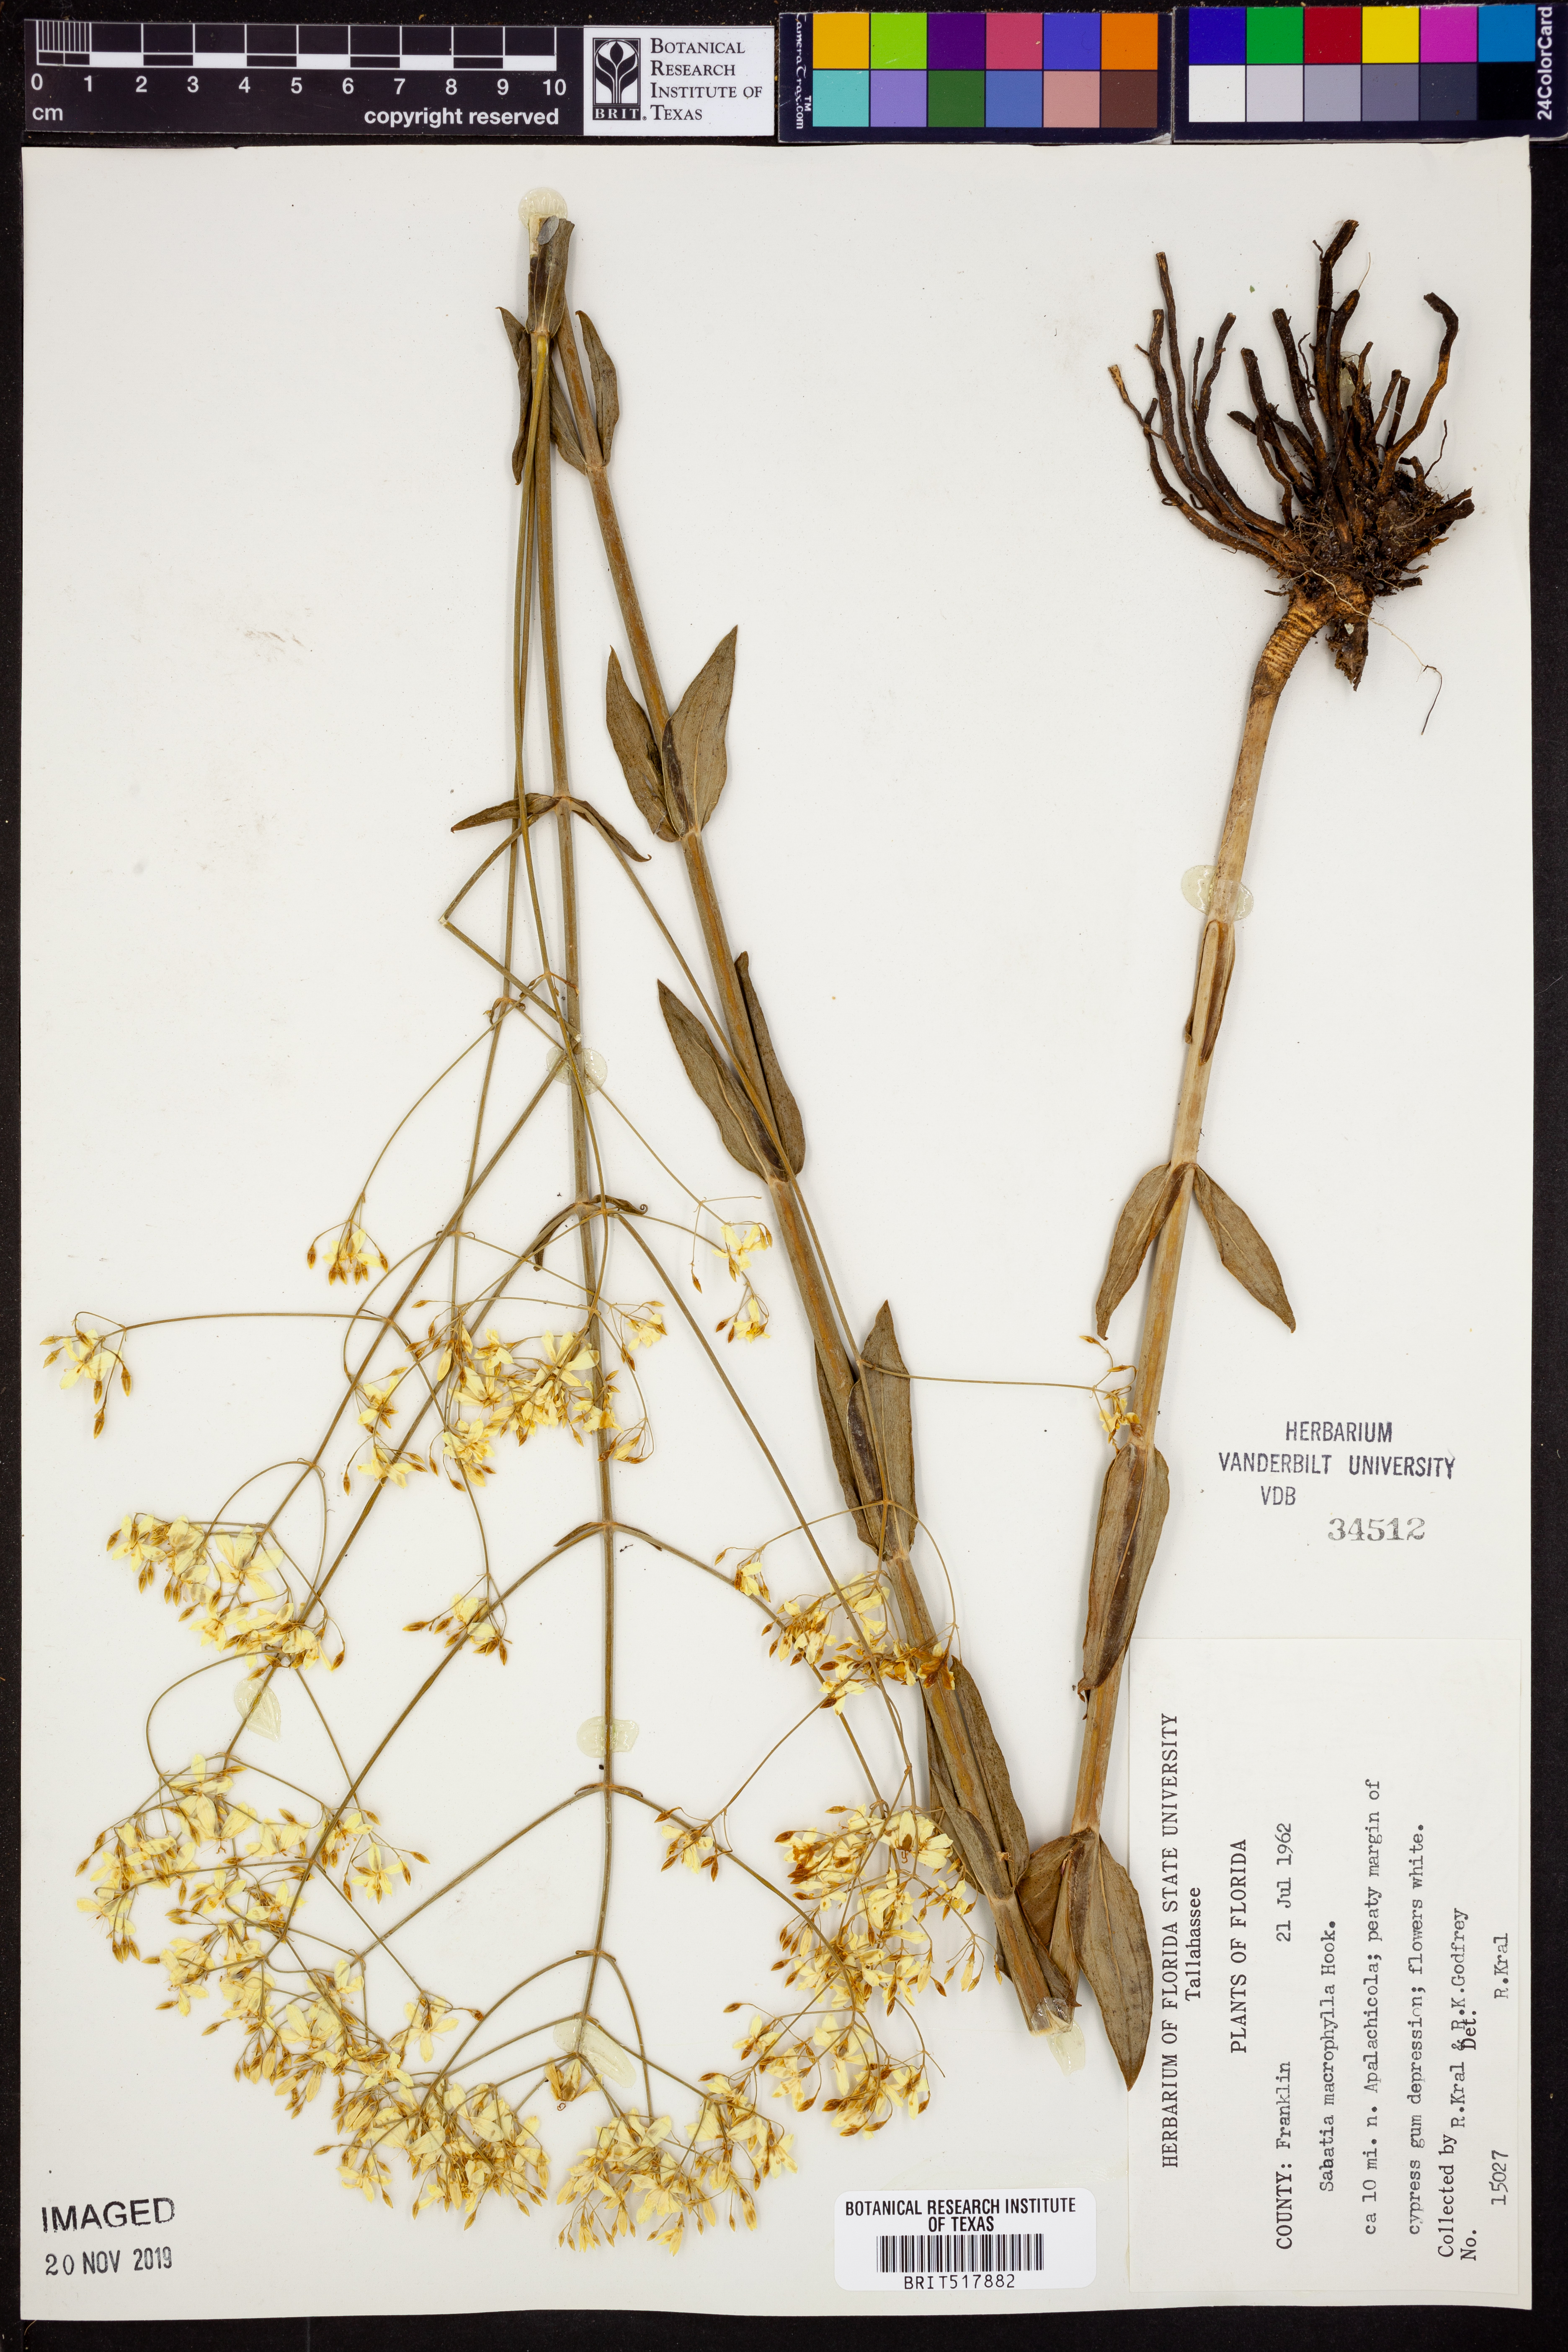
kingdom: Plantae
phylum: Tracheophyta
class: Magnoliopsida
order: Gentianales
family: Gentianaceae
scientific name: Gentianaceae
